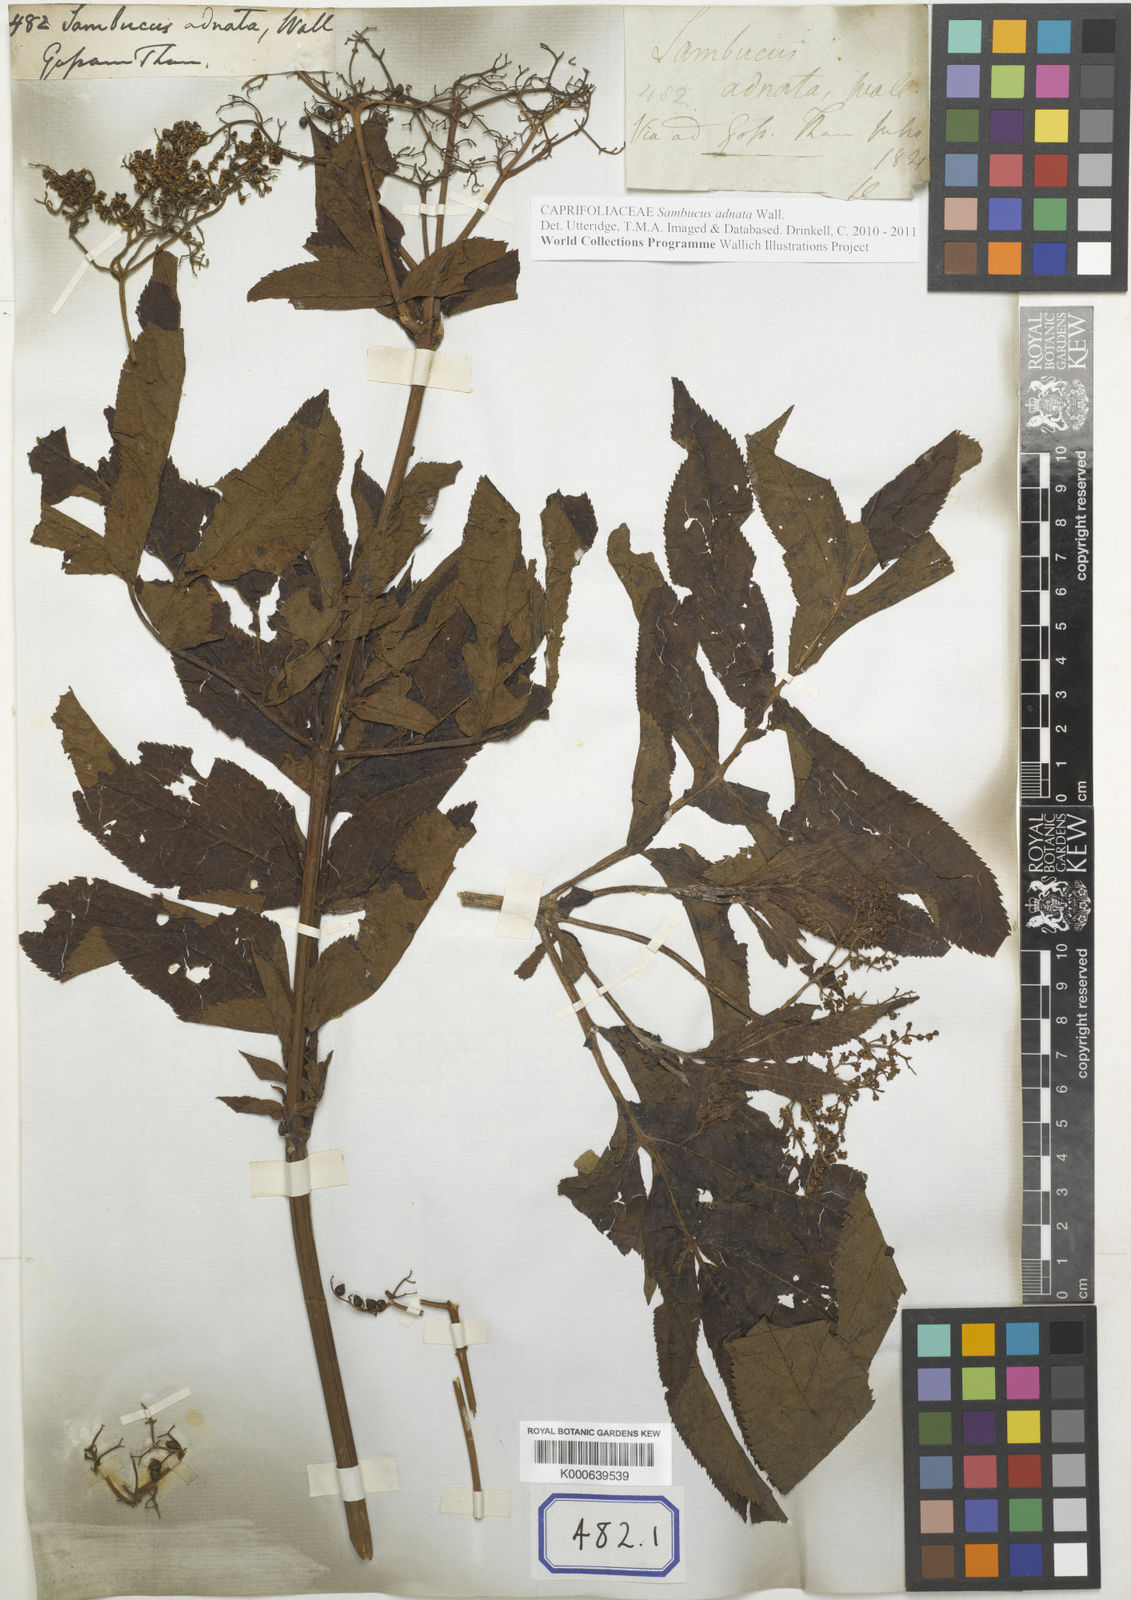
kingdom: Plantae
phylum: Tracheophyta
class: Magnoliopsida
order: Dipsacales
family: Viburnaceae
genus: Sambucus
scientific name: Sambucus
